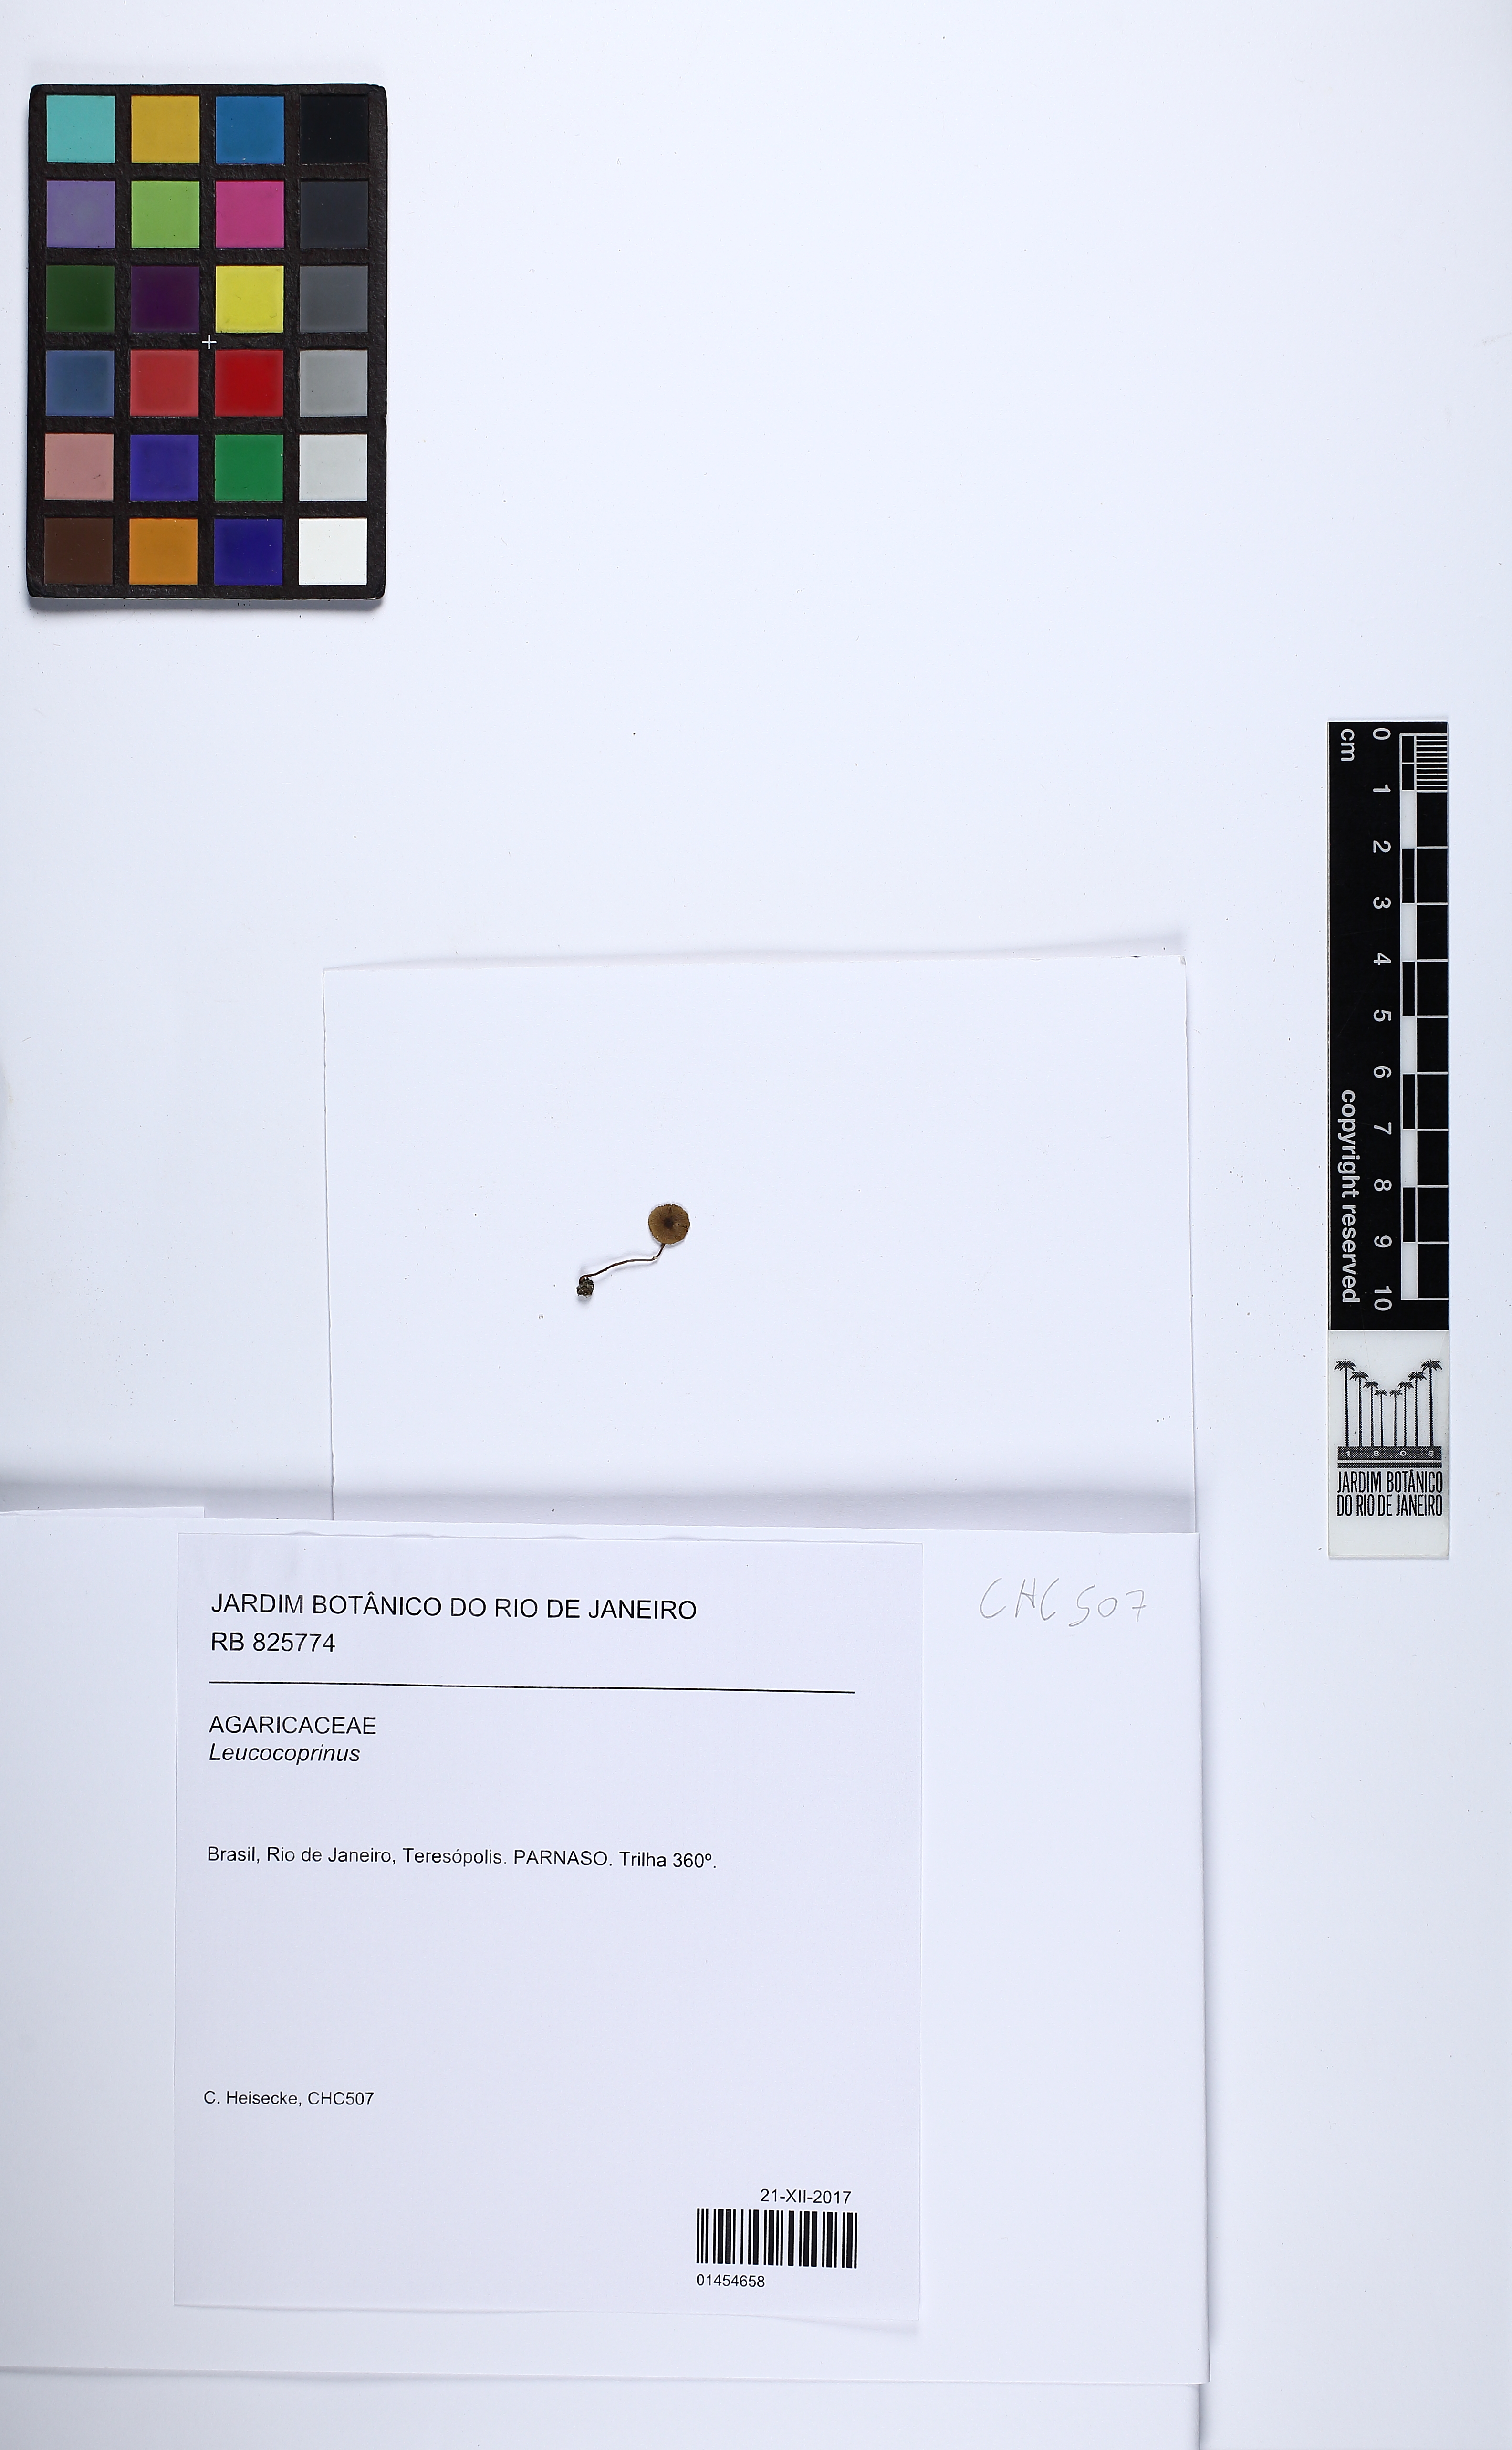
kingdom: Fungi
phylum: Basidiomycota
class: Agaricomycetes
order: Agaricales
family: Agaricaceae
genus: Leucocoprinus
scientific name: Leucocoprinus
